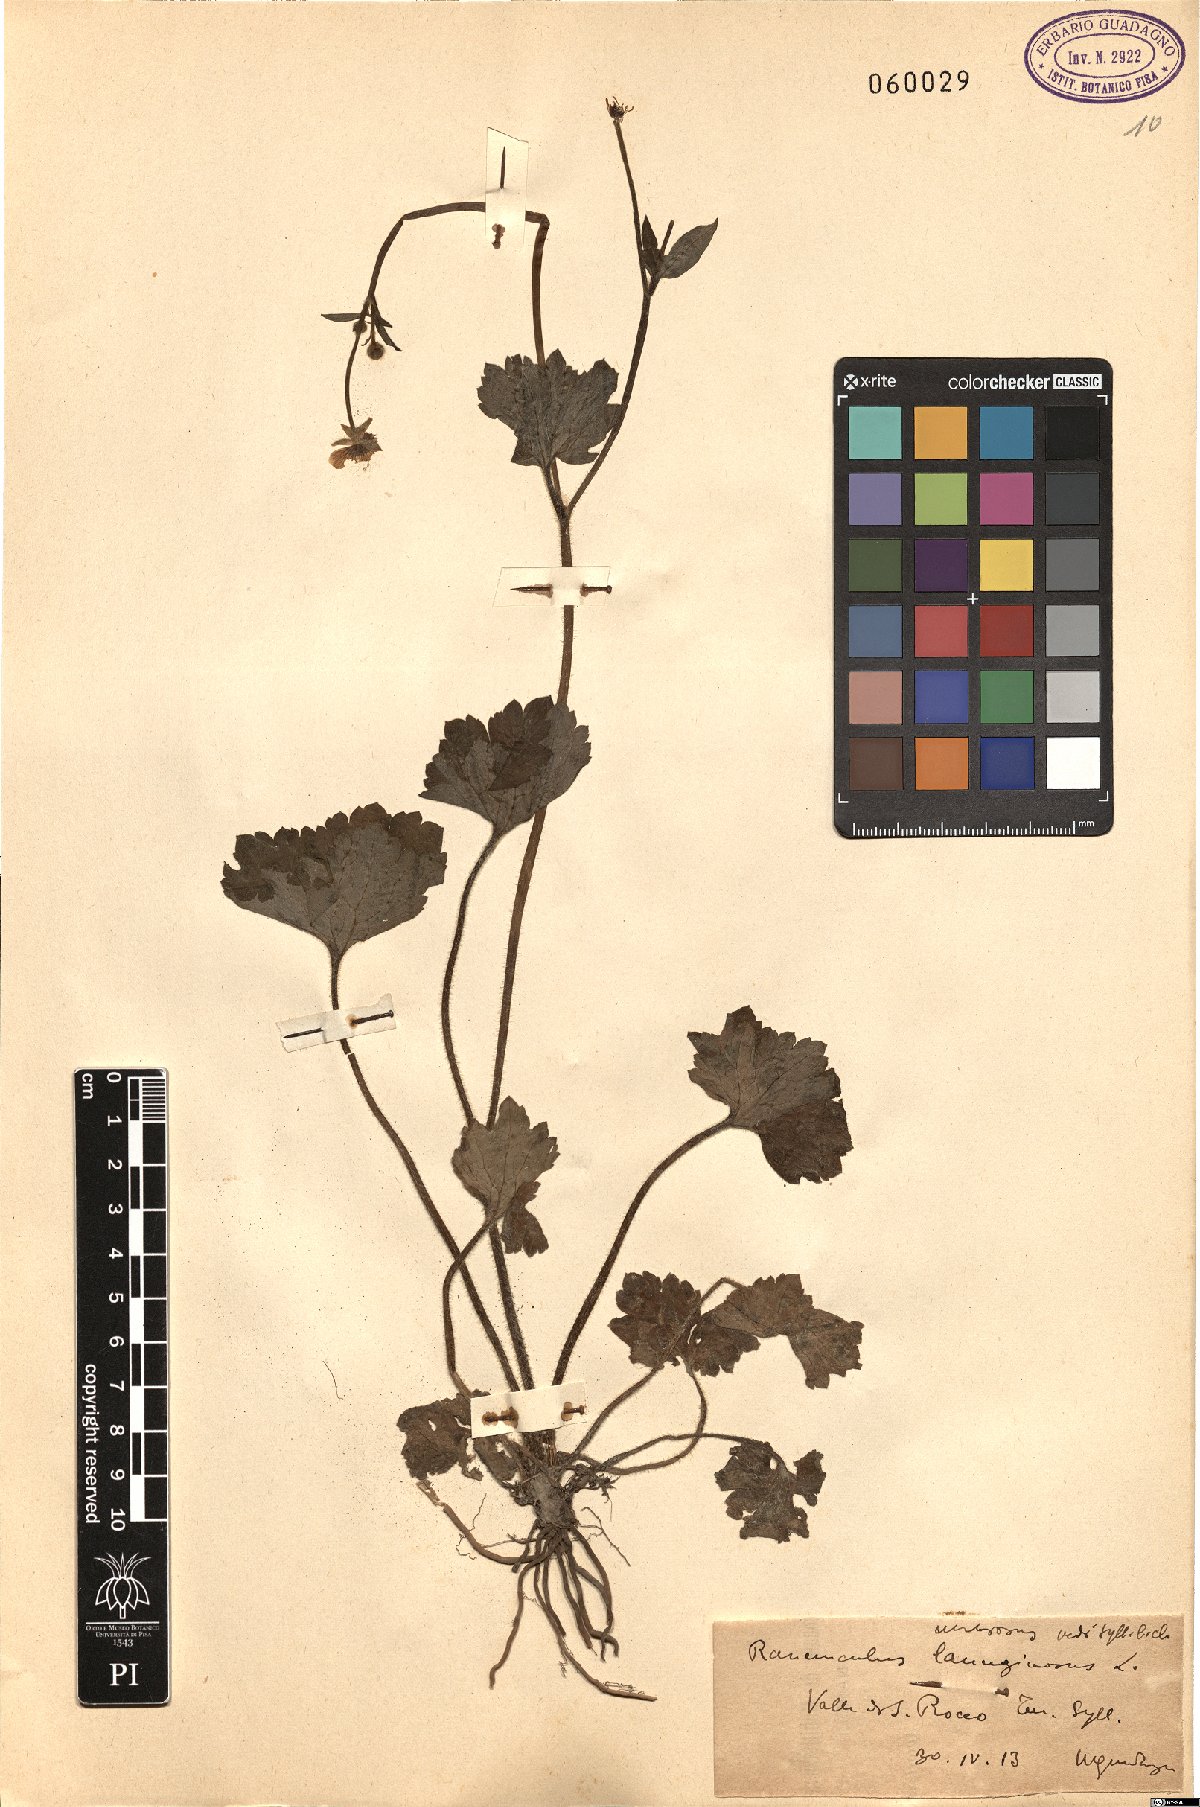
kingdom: Plantae
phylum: Tracheophyta
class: Magnoliopsida
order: Ranunculales
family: Ranunculaceae
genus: Ranunculus
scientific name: Ranunculus lanuginosus
